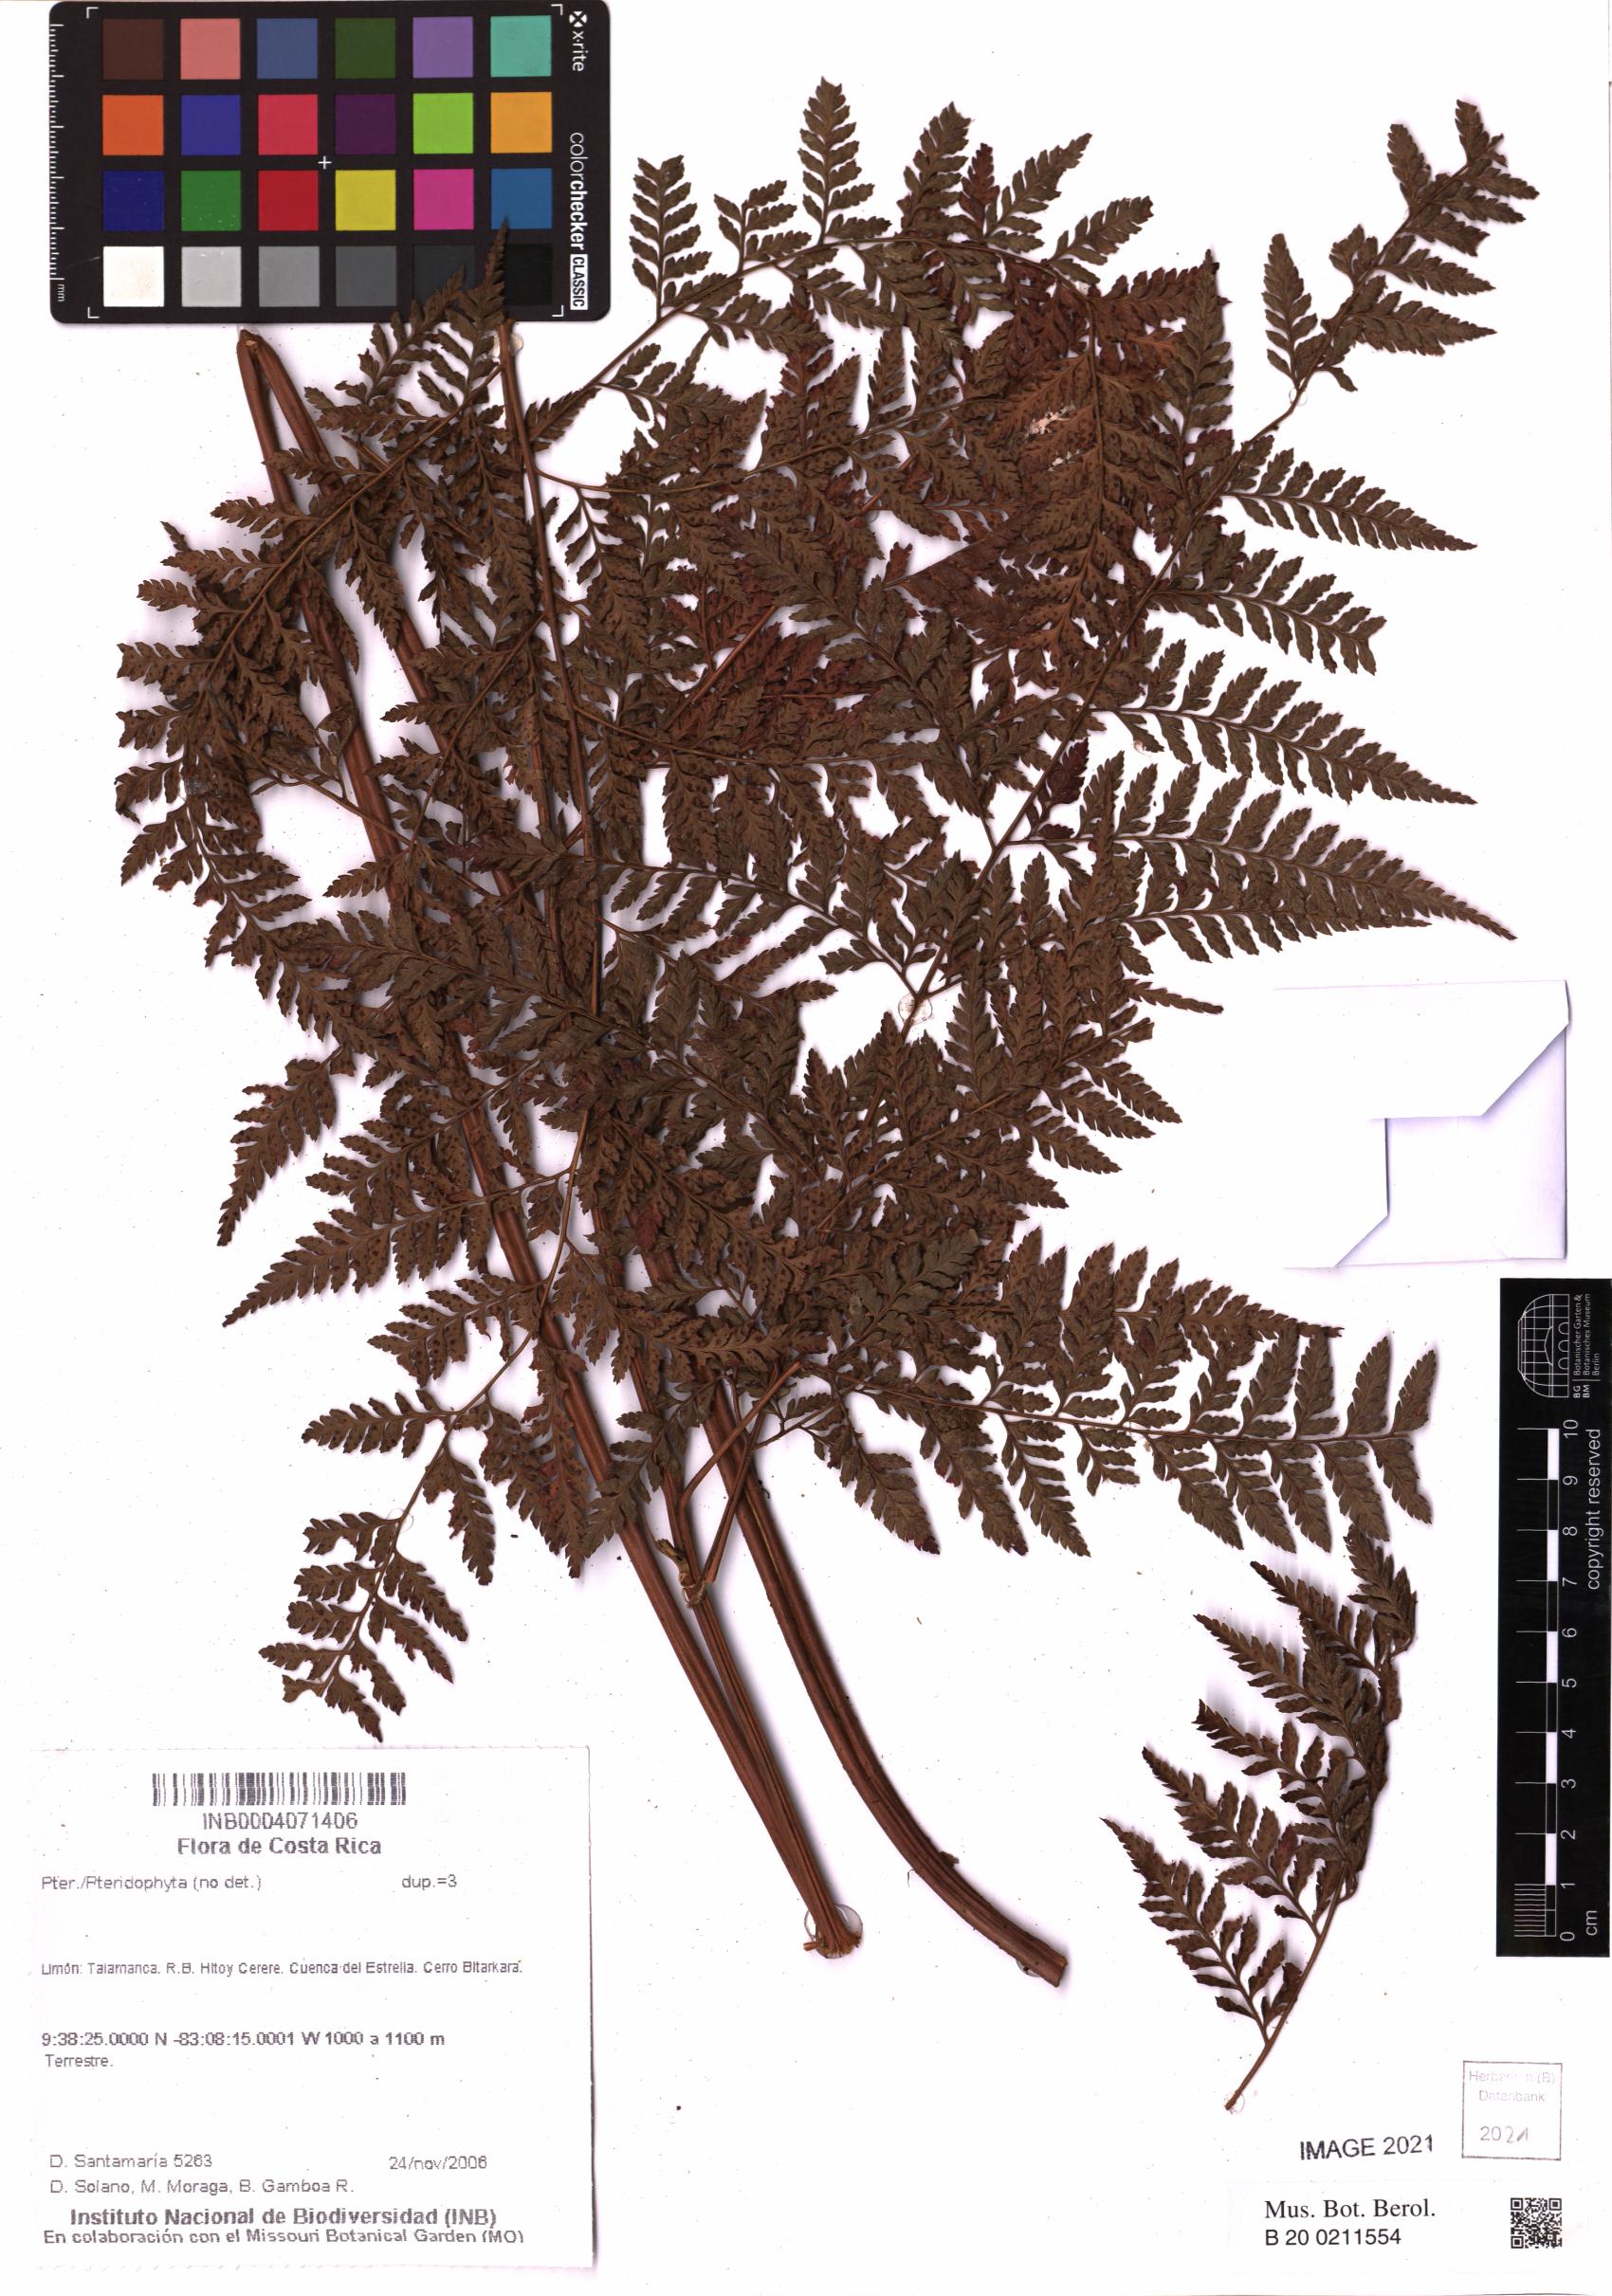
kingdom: Plantae
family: Pteridophyta
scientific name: Pteridophyta
